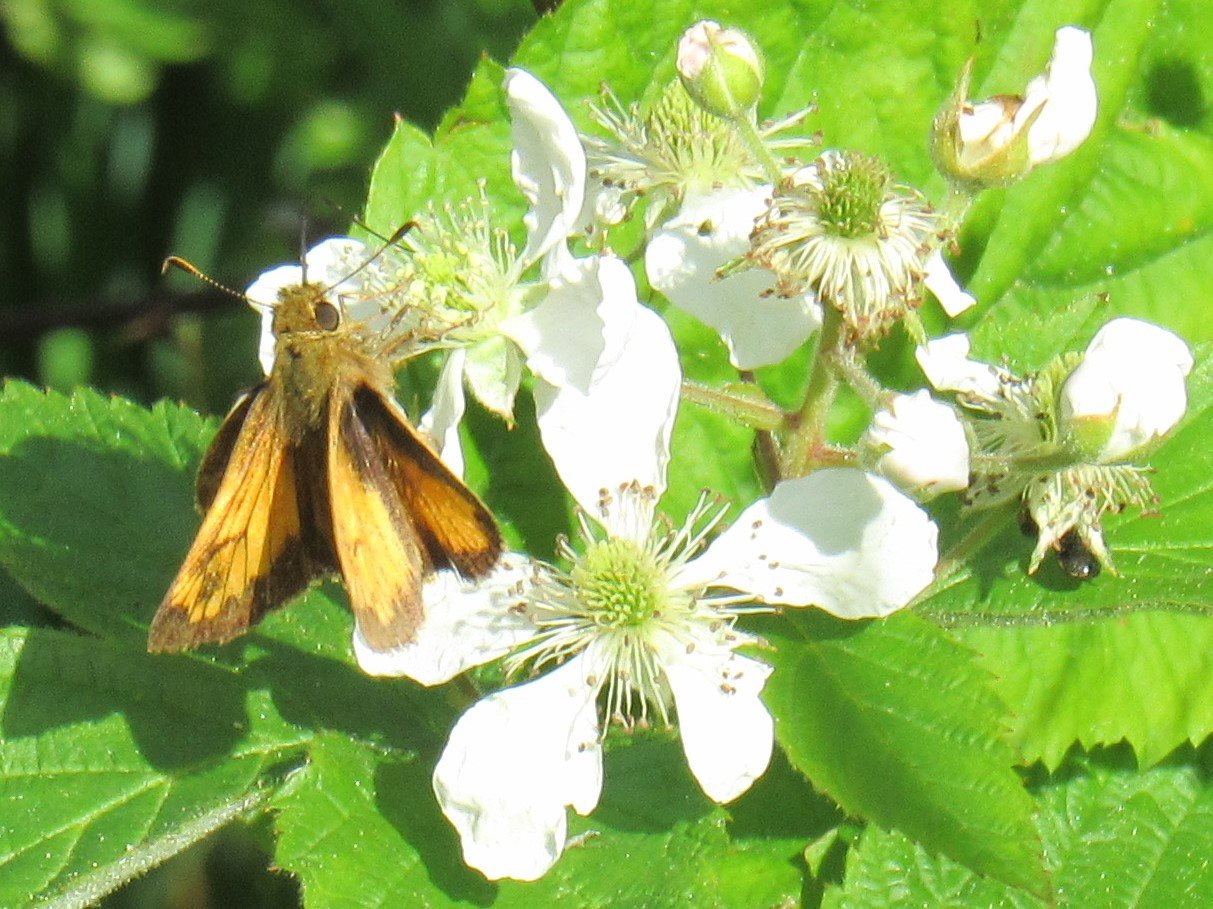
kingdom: Animalia
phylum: Arthropoda
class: Insecta
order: Lepidoptera
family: Hesperiidae
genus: Lon
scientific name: Lon zabulon
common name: Zabulon Skipper
